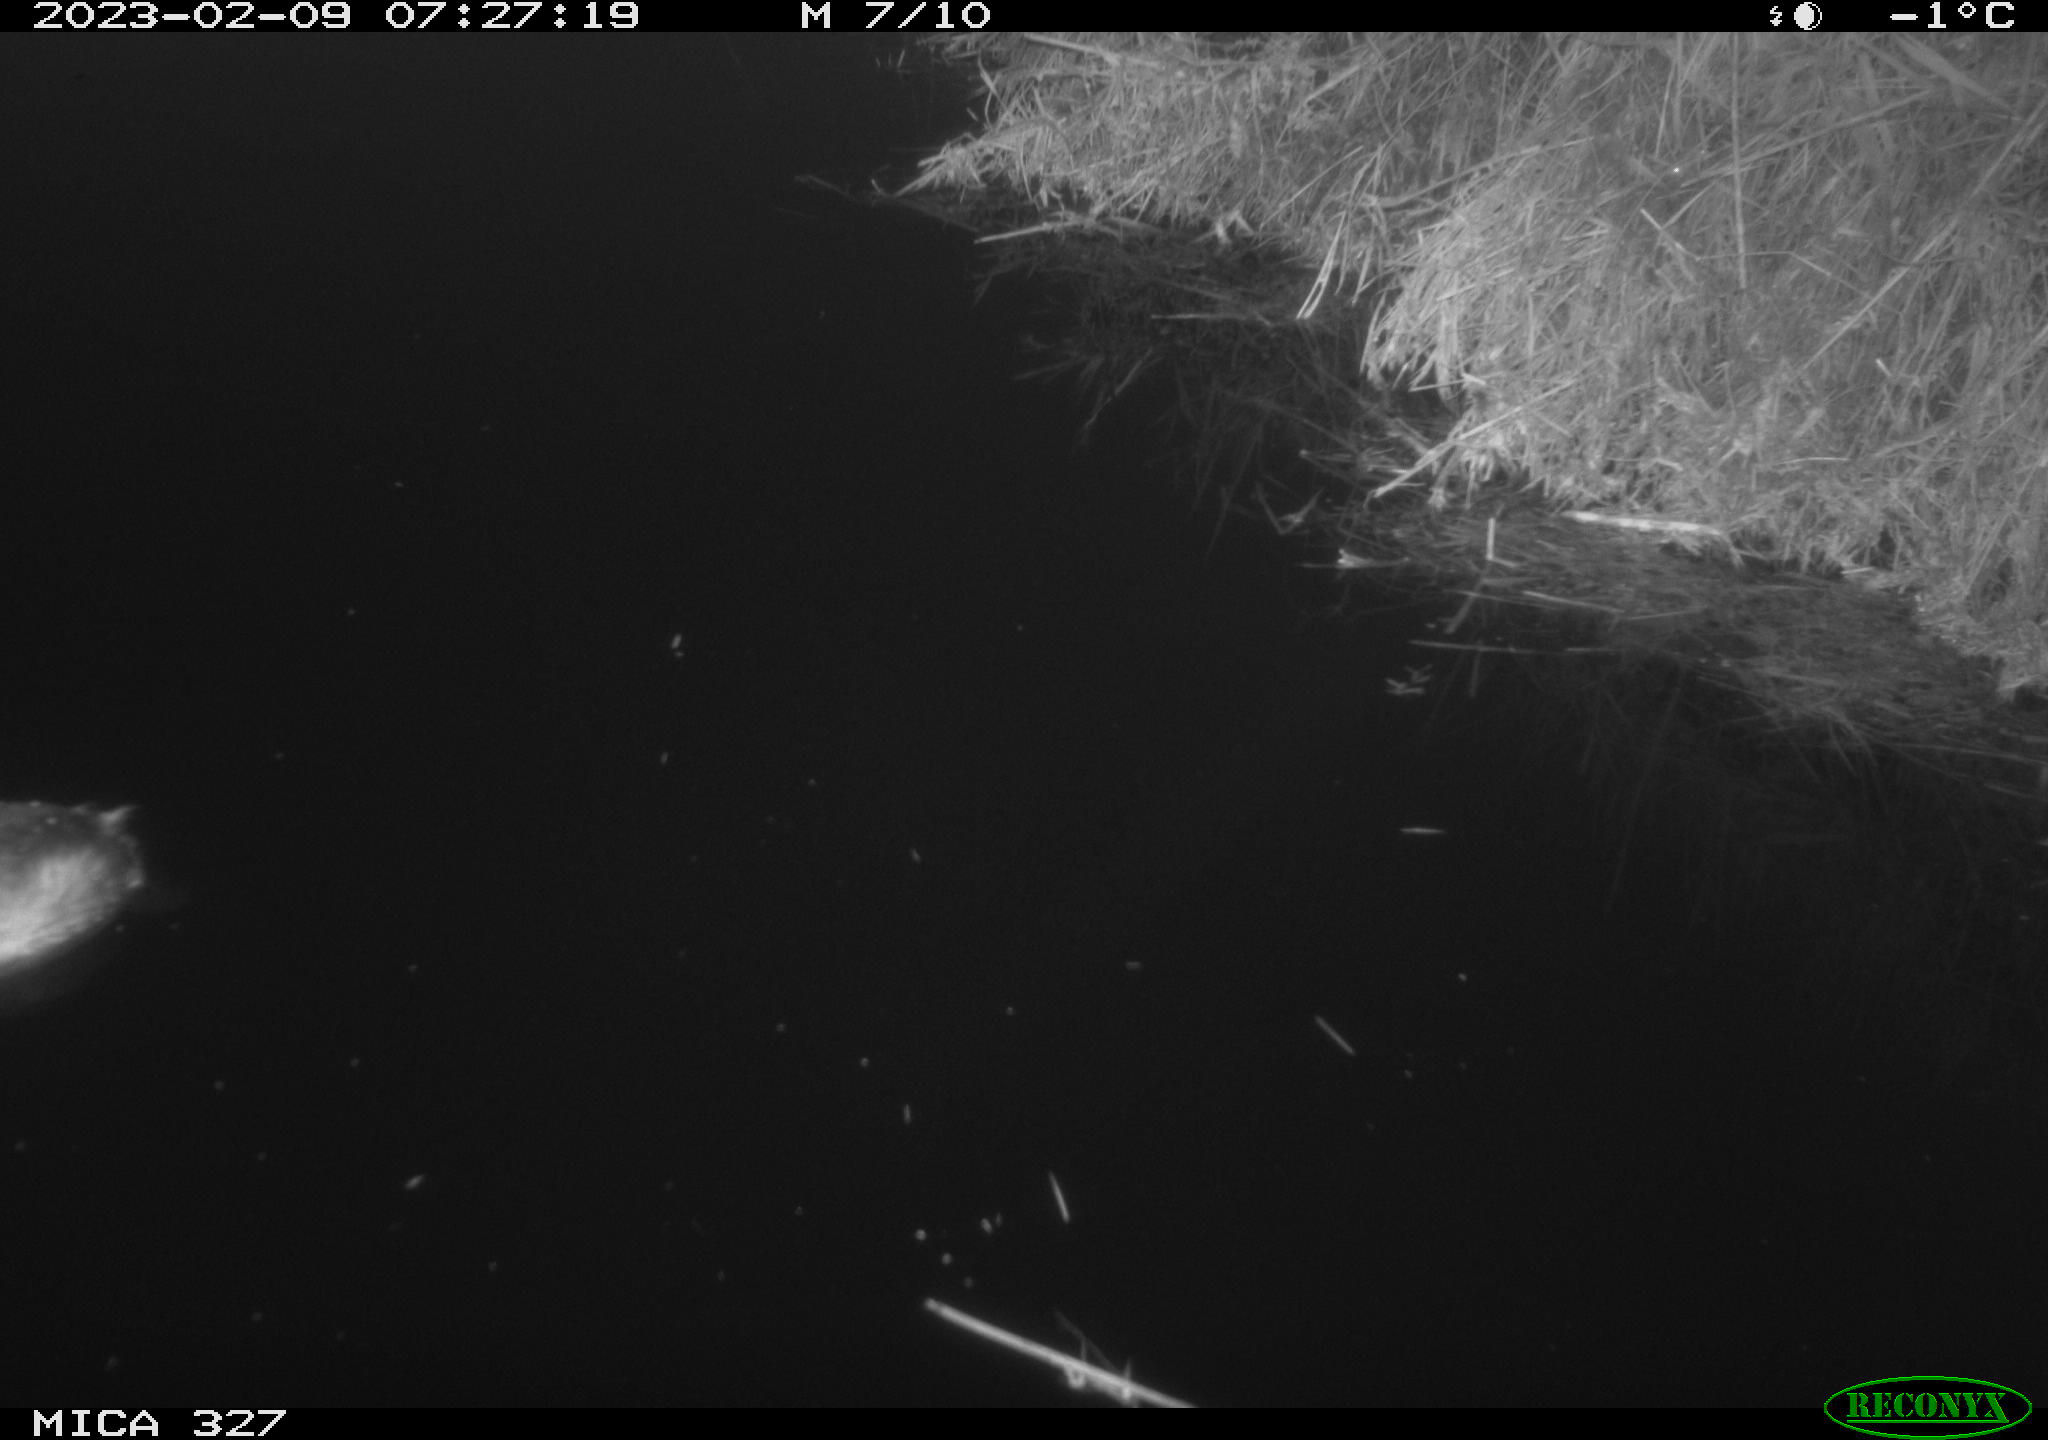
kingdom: Animalia
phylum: Chordata
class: Aves
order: Podicipediformes
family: Podicipedidae
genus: Tachybaptus
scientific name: Tachybaptus ruficollis
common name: Little grebe
